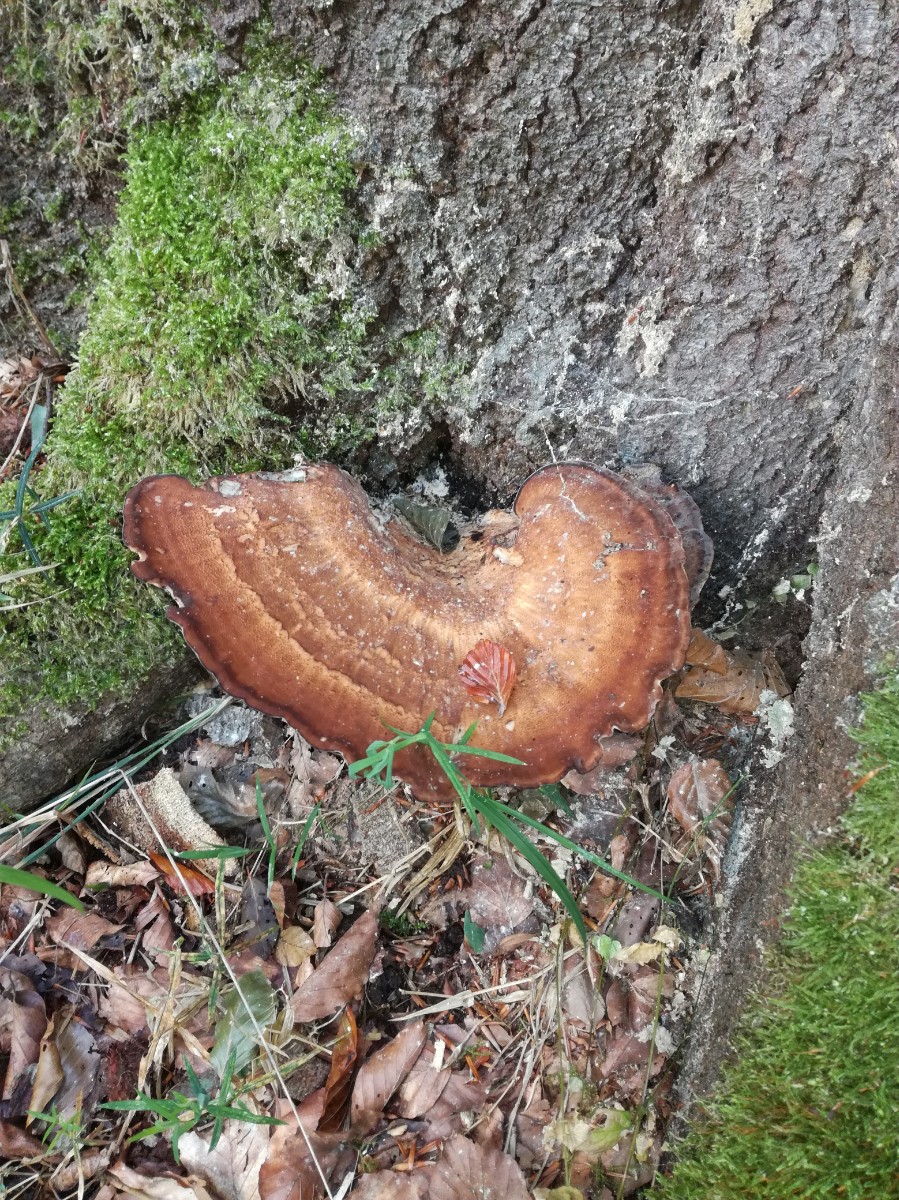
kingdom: Fungi
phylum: Basidiomycota
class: Agaricomycetes
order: Polyporales
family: Meripilaceae
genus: Meripilus
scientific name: Meripilus giganteus
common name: kæmpeporesvamp
